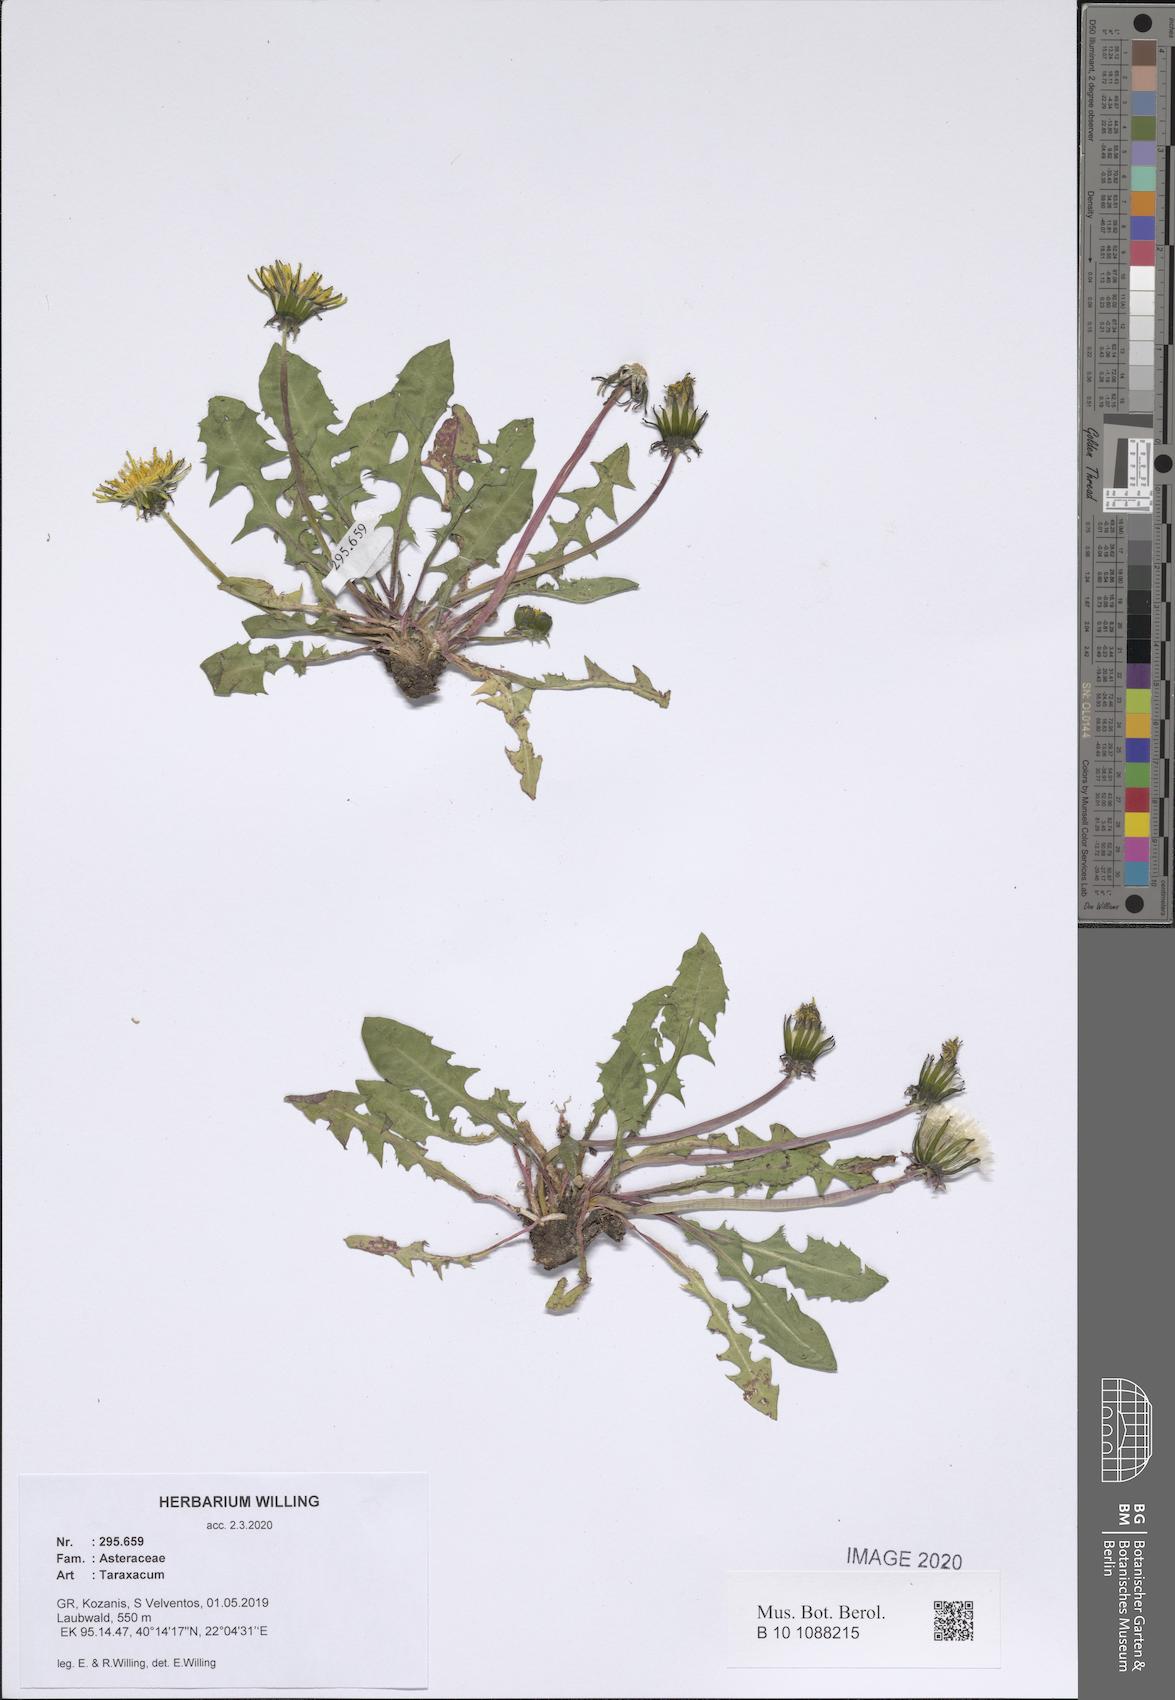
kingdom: Plantae
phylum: Tracheophyta
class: Magnoliopsida
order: Asterales
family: Asteraceae
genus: Taraxacum
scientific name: Taraxacum
